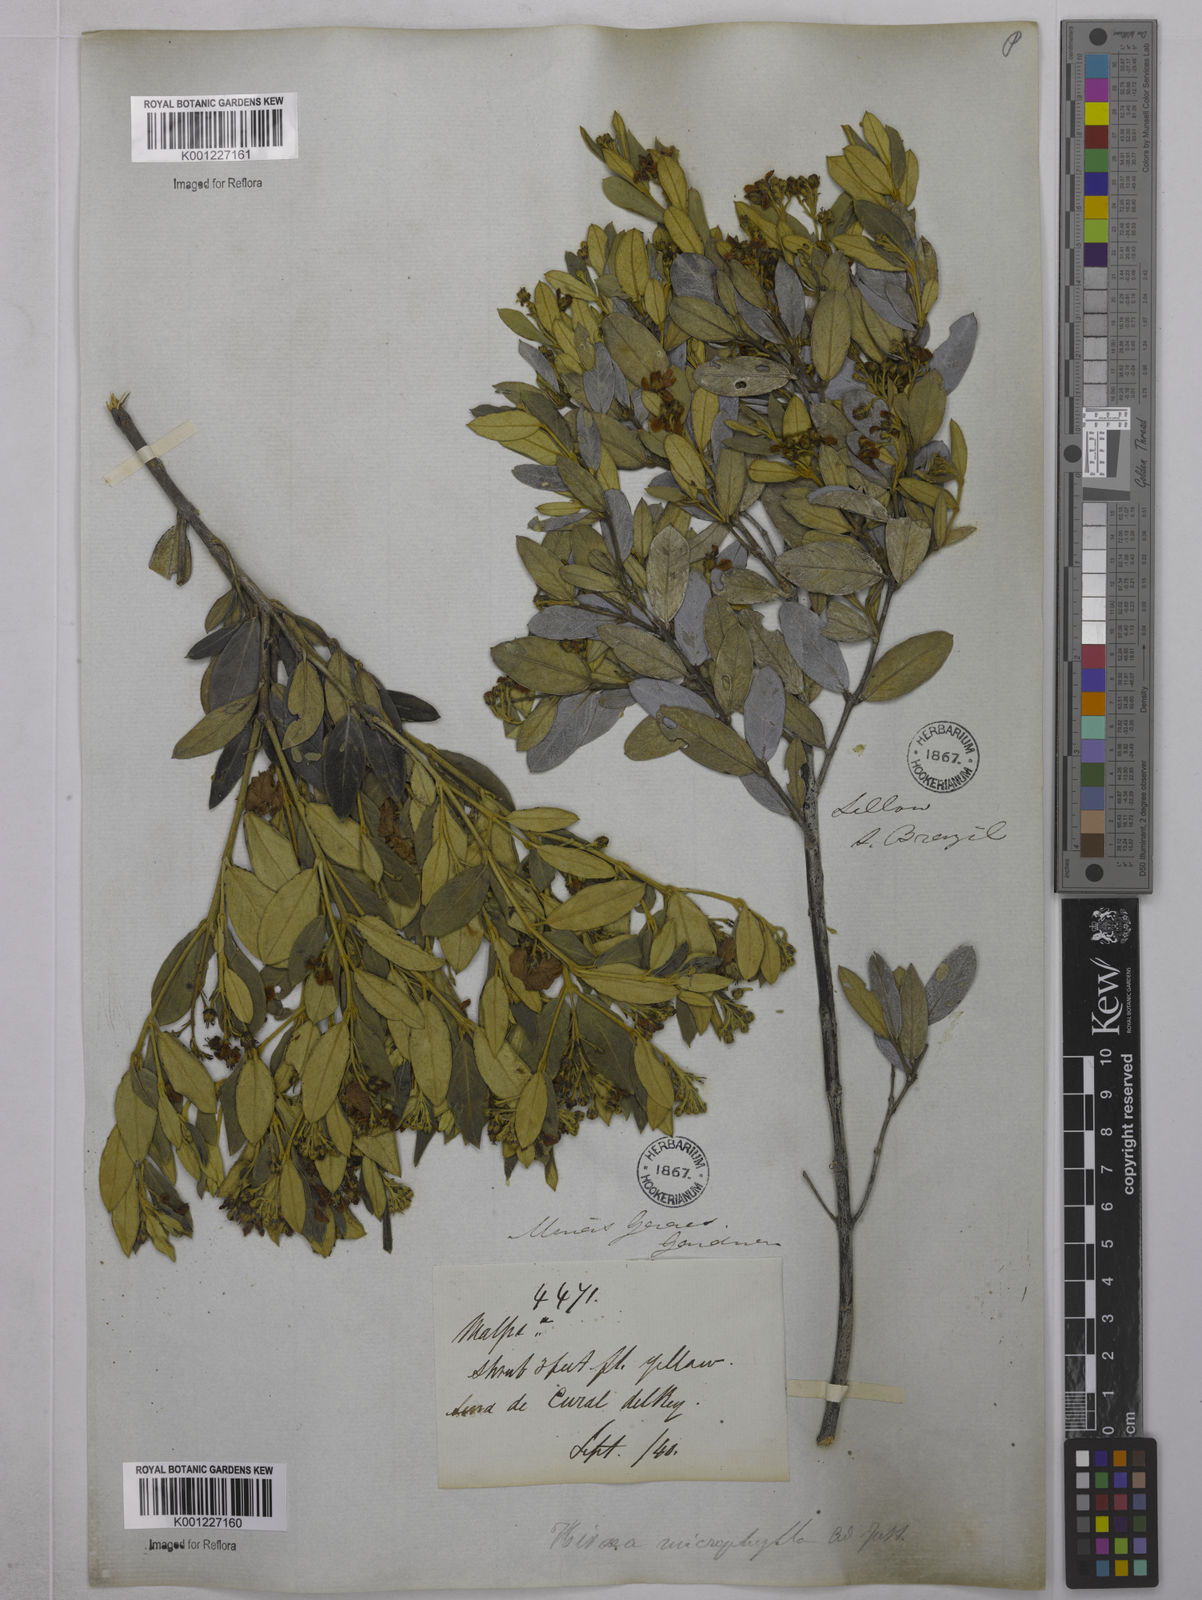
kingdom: Plantae
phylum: Tracheophyta
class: Magnoliopsida
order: Malpighiales
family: Malpighiaceae
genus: Glicophyllum
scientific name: Glicophyllum microphyllum
